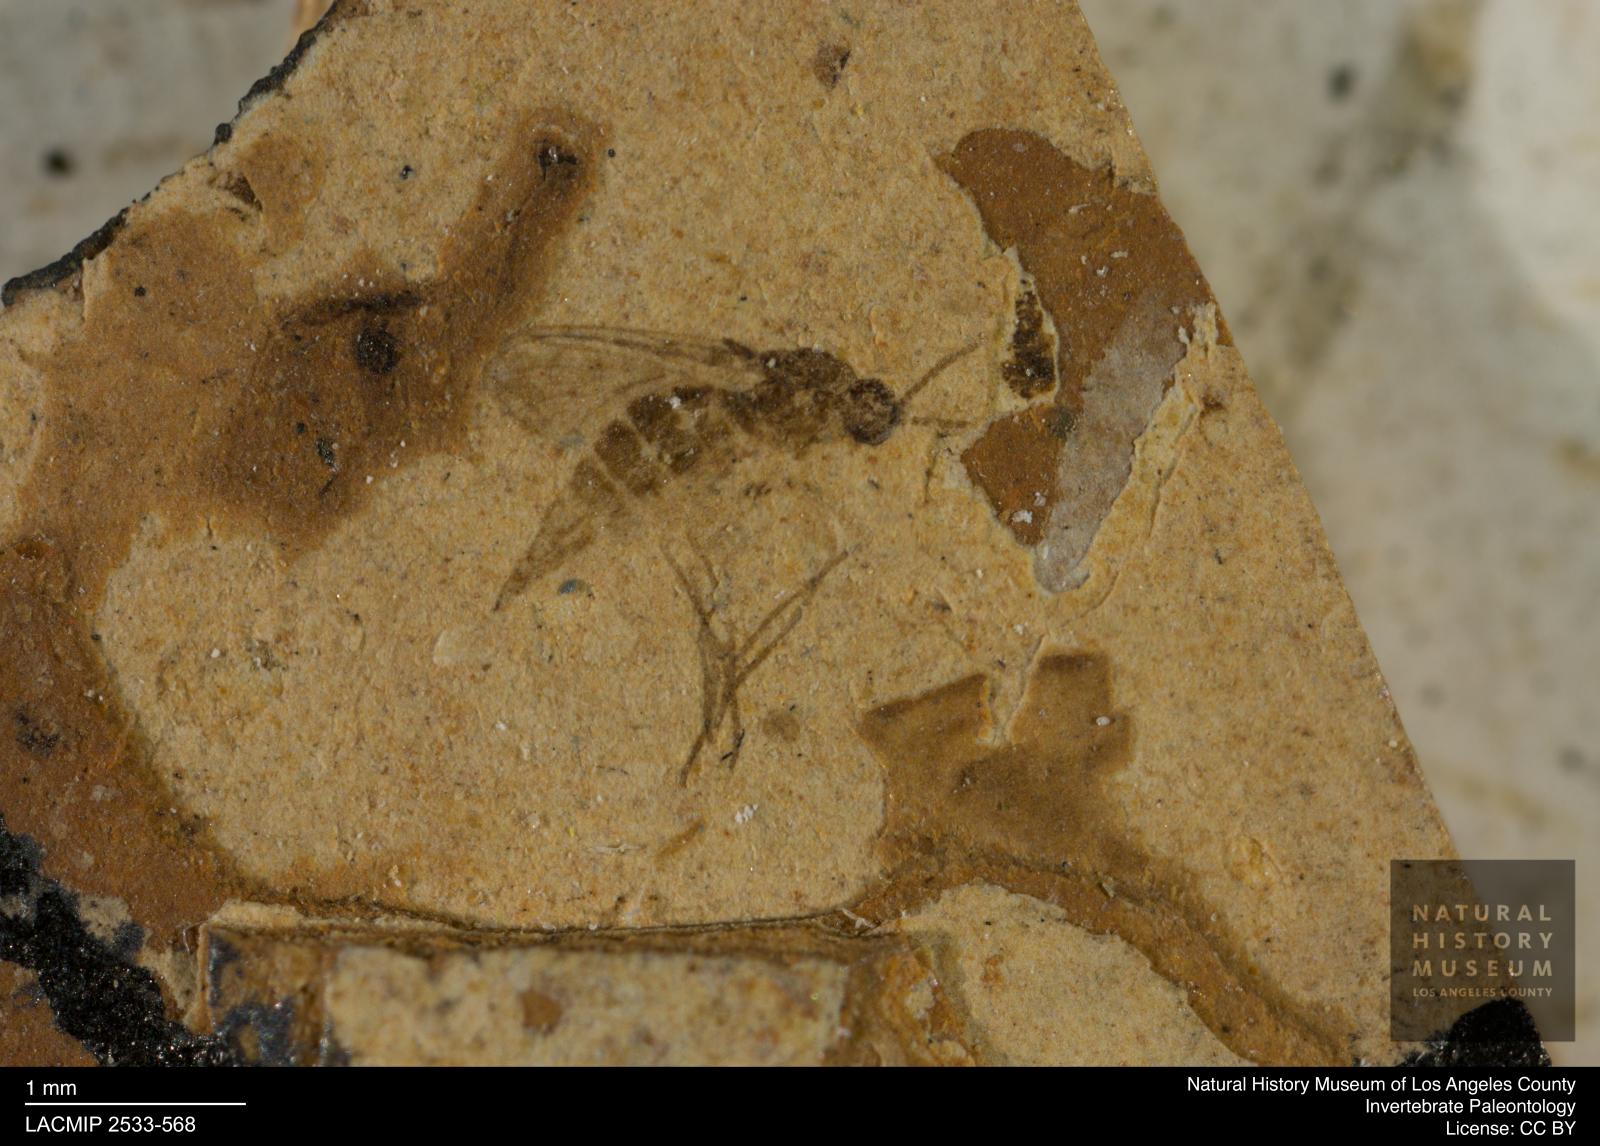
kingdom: Animalia
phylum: Arthropoda
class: Insecta
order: Diptera
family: Sciaridae
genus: Corynoptera
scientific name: Corynoptera klebsii
